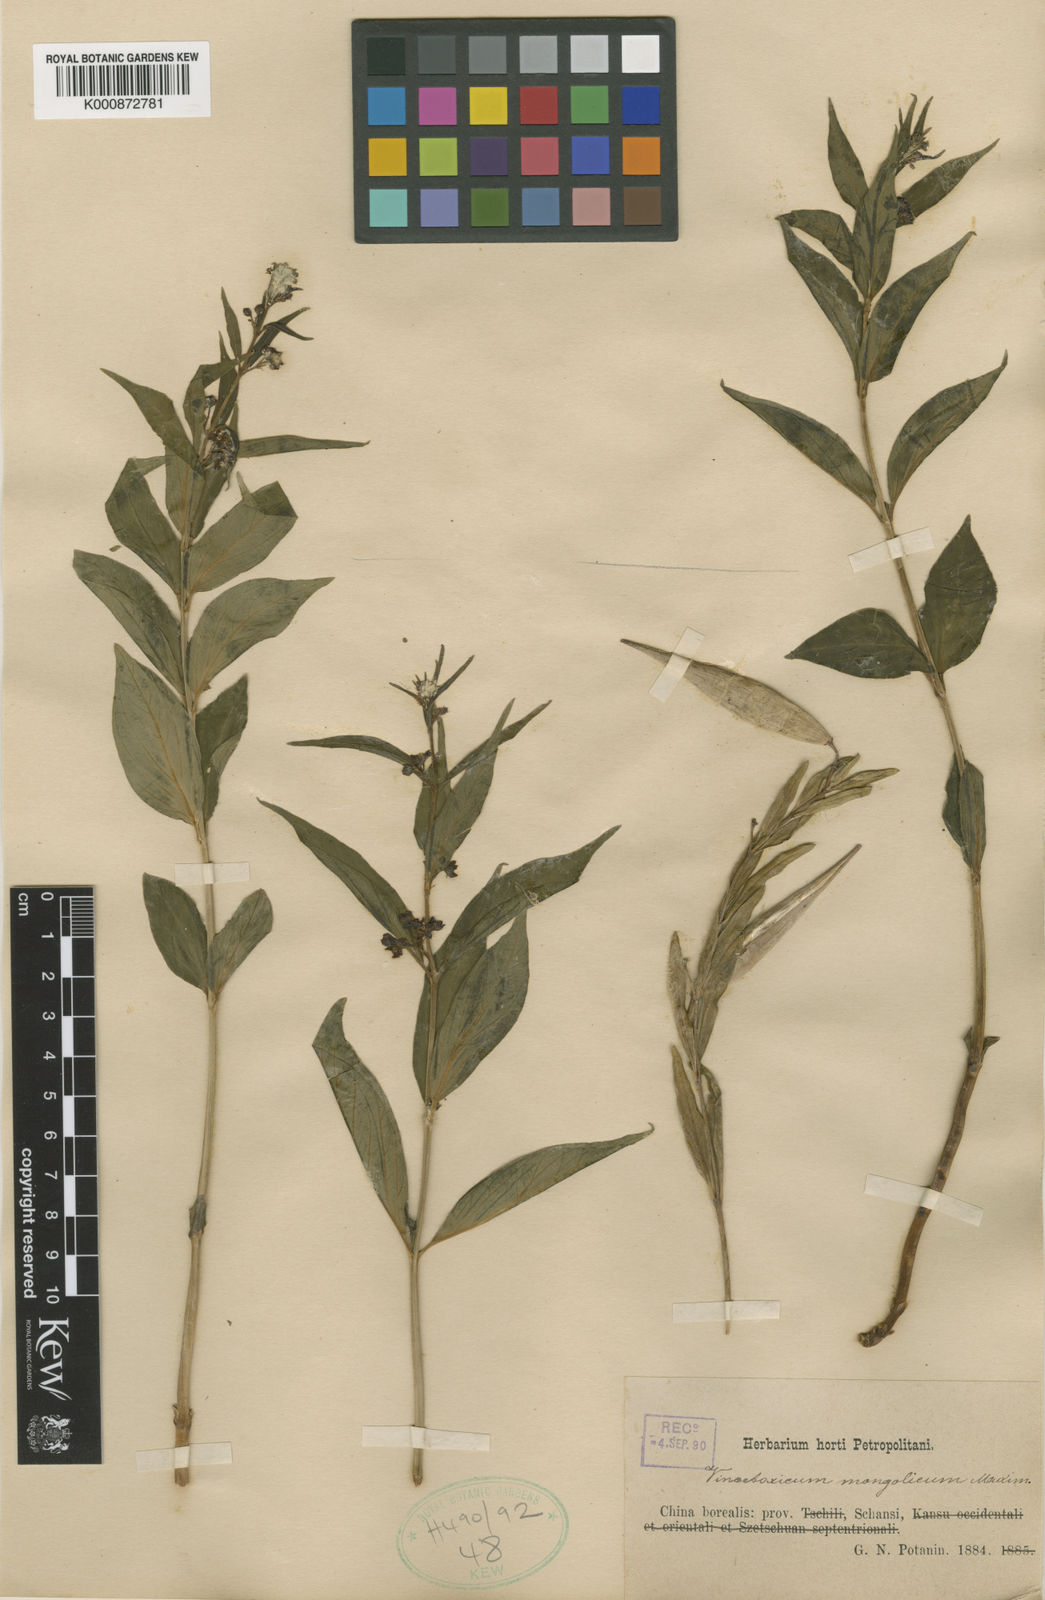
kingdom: Plantae
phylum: Tracheophyta
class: Magnoliopsida
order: Gentianales
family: Apocynaceae
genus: Vincetoxicum
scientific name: Vincetoxicum mongolicum
